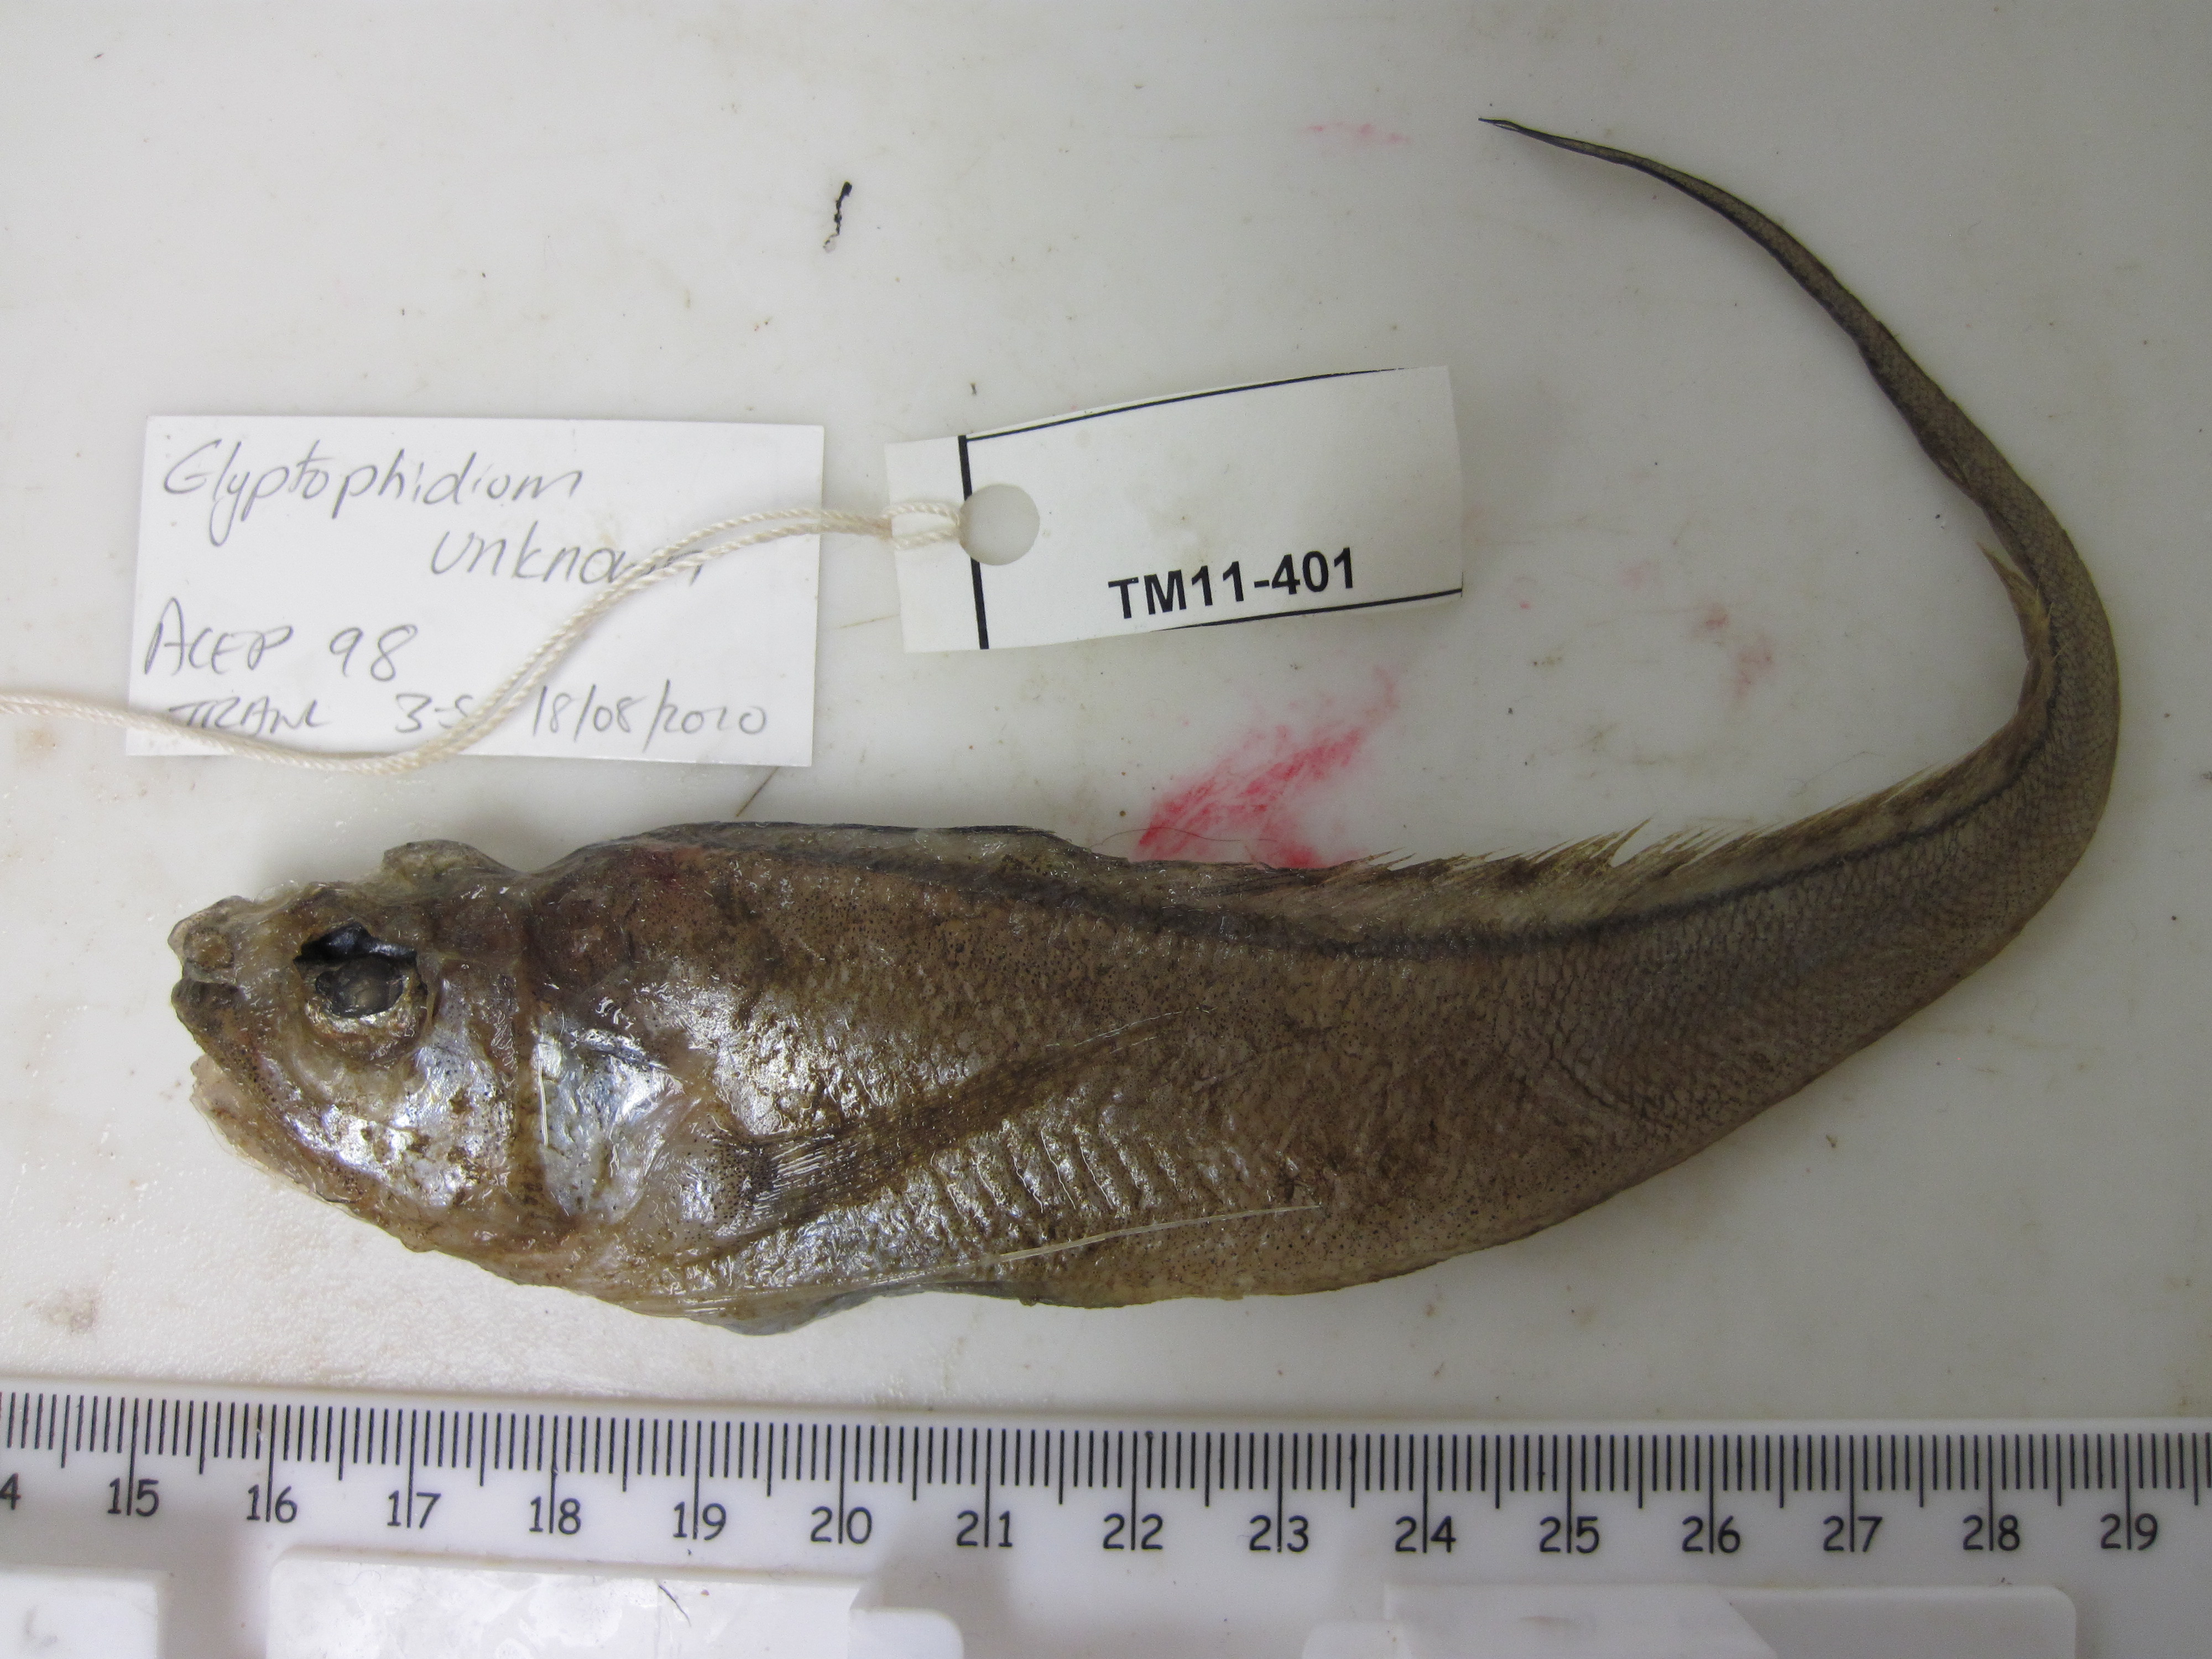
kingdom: Animalia
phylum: Chordata
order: Ophidiiformes
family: Ophidiidae
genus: Glyptophidium
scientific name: Glyptophidium longipes
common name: Bigeye brotula
